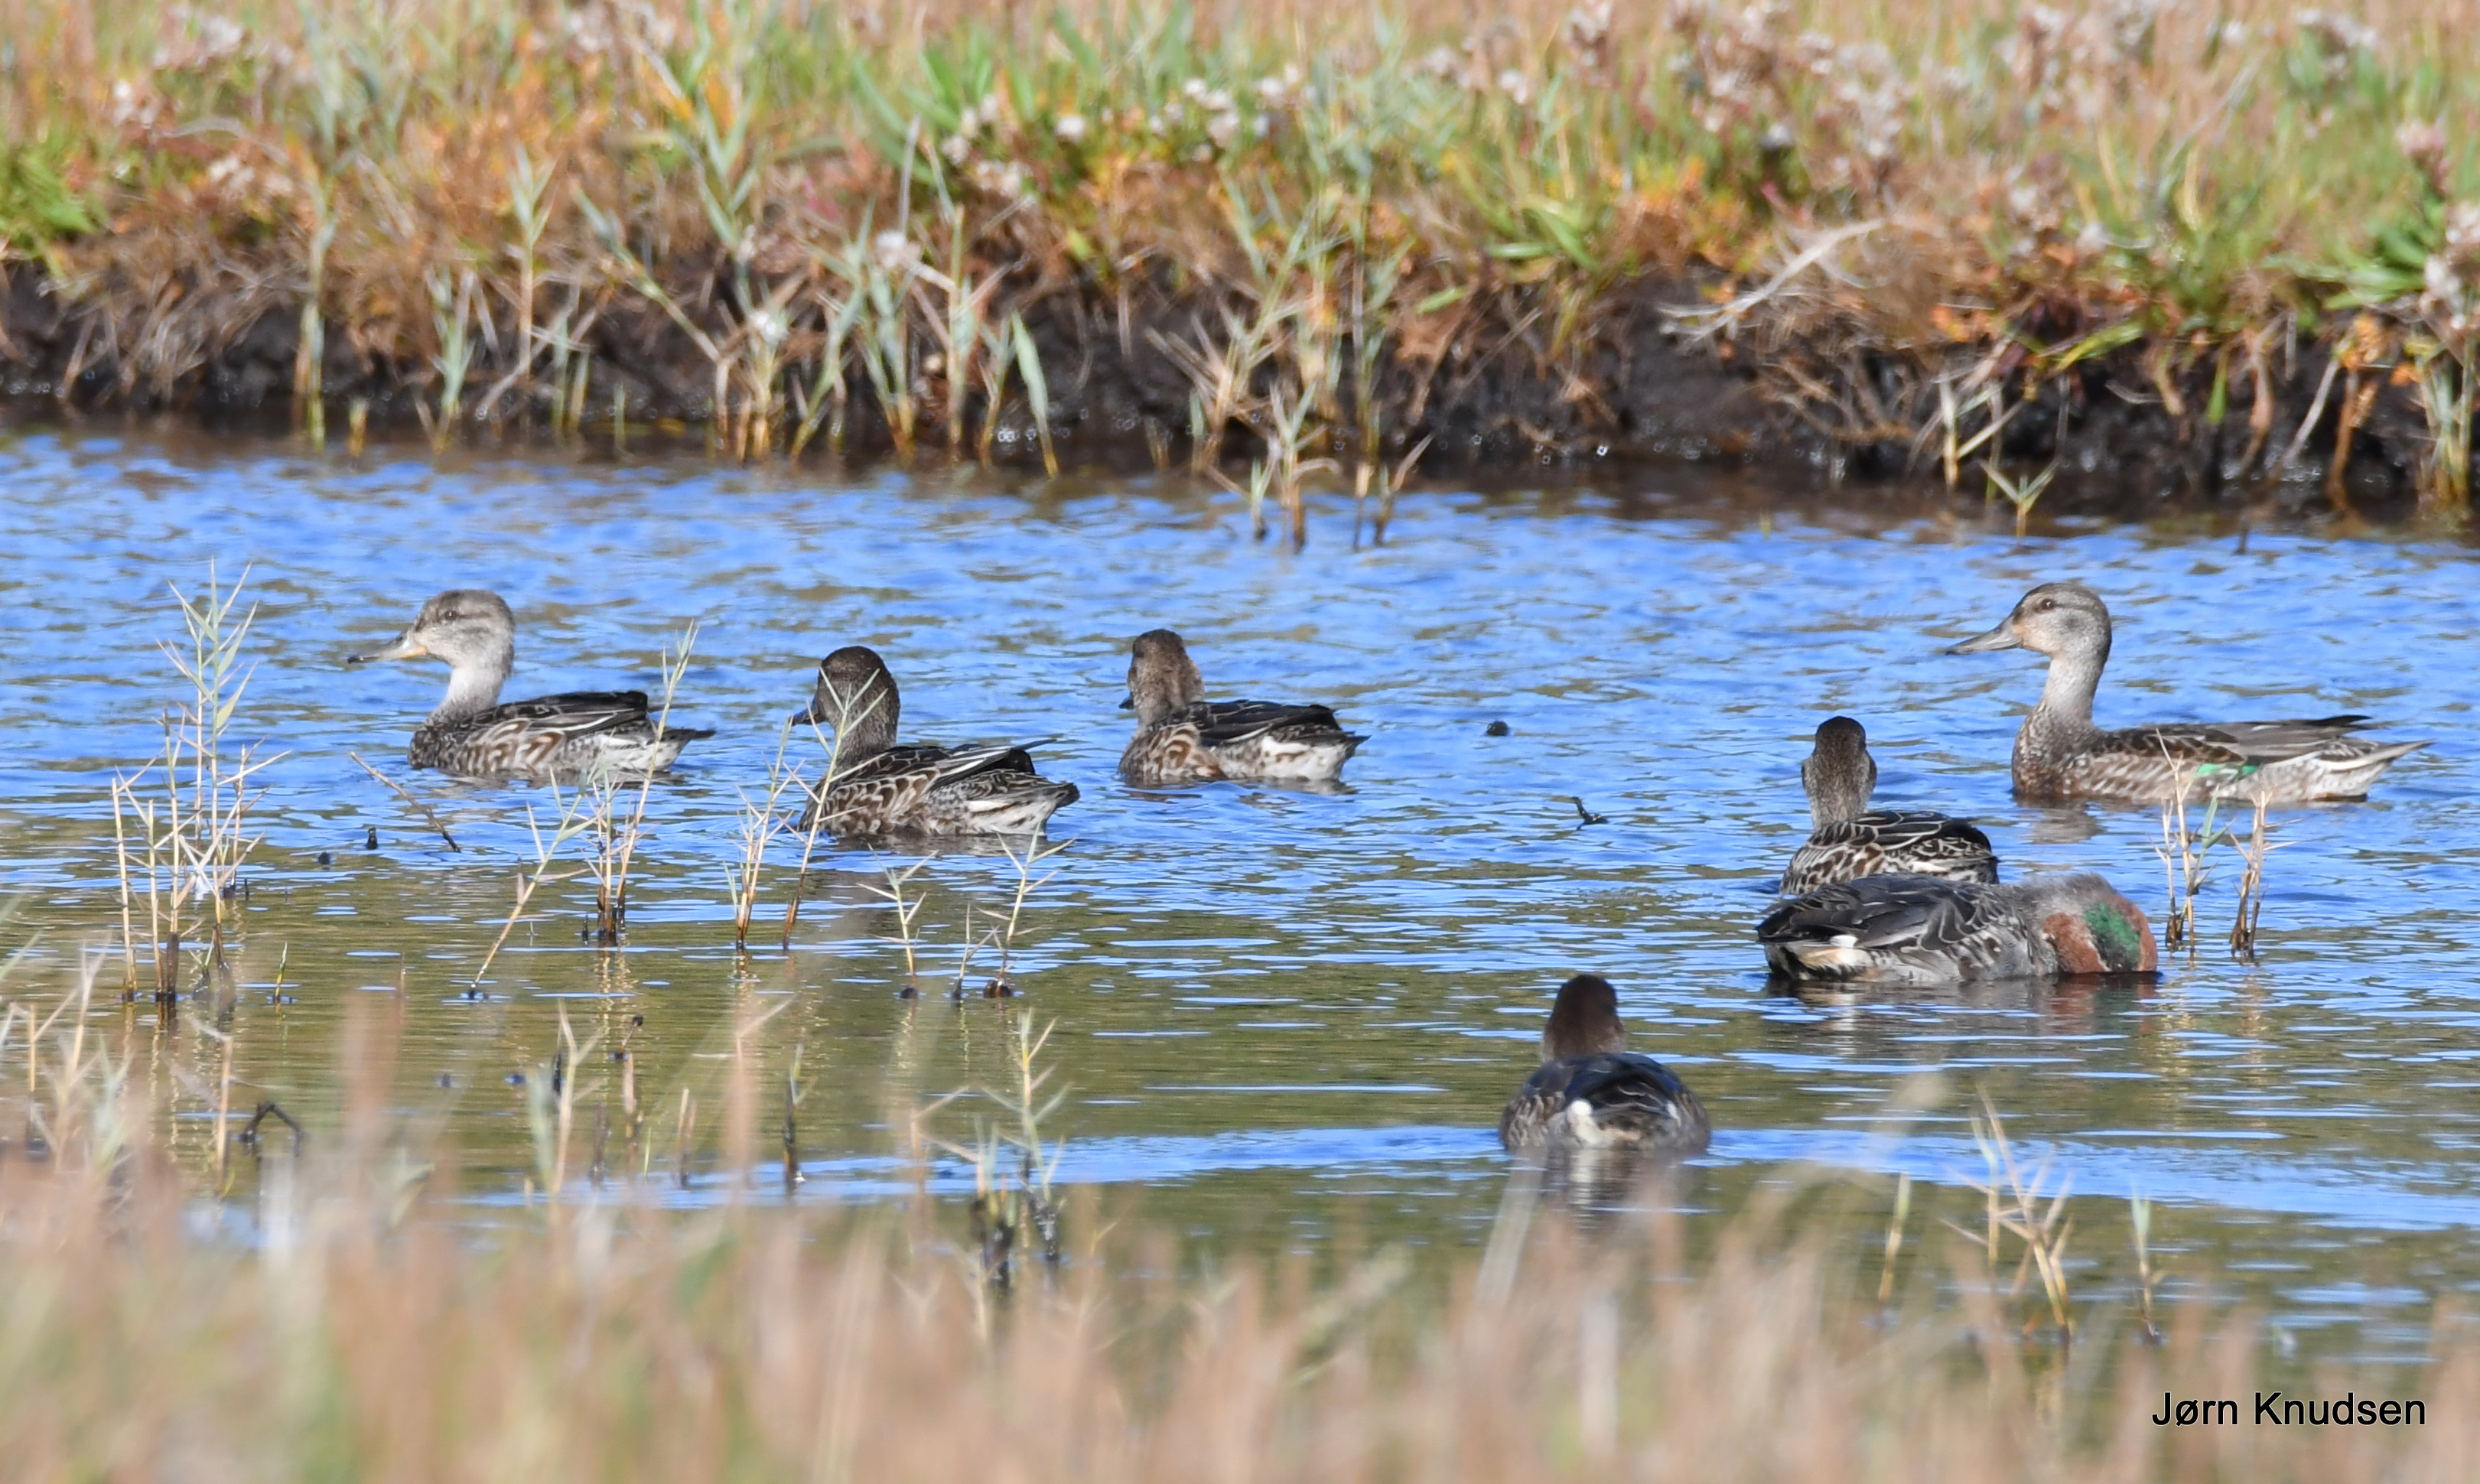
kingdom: Animalia
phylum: Chordata
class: Aves
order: Anseriformes
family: Anatidae
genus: Anas
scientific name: Anas crecca
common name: Krikand
